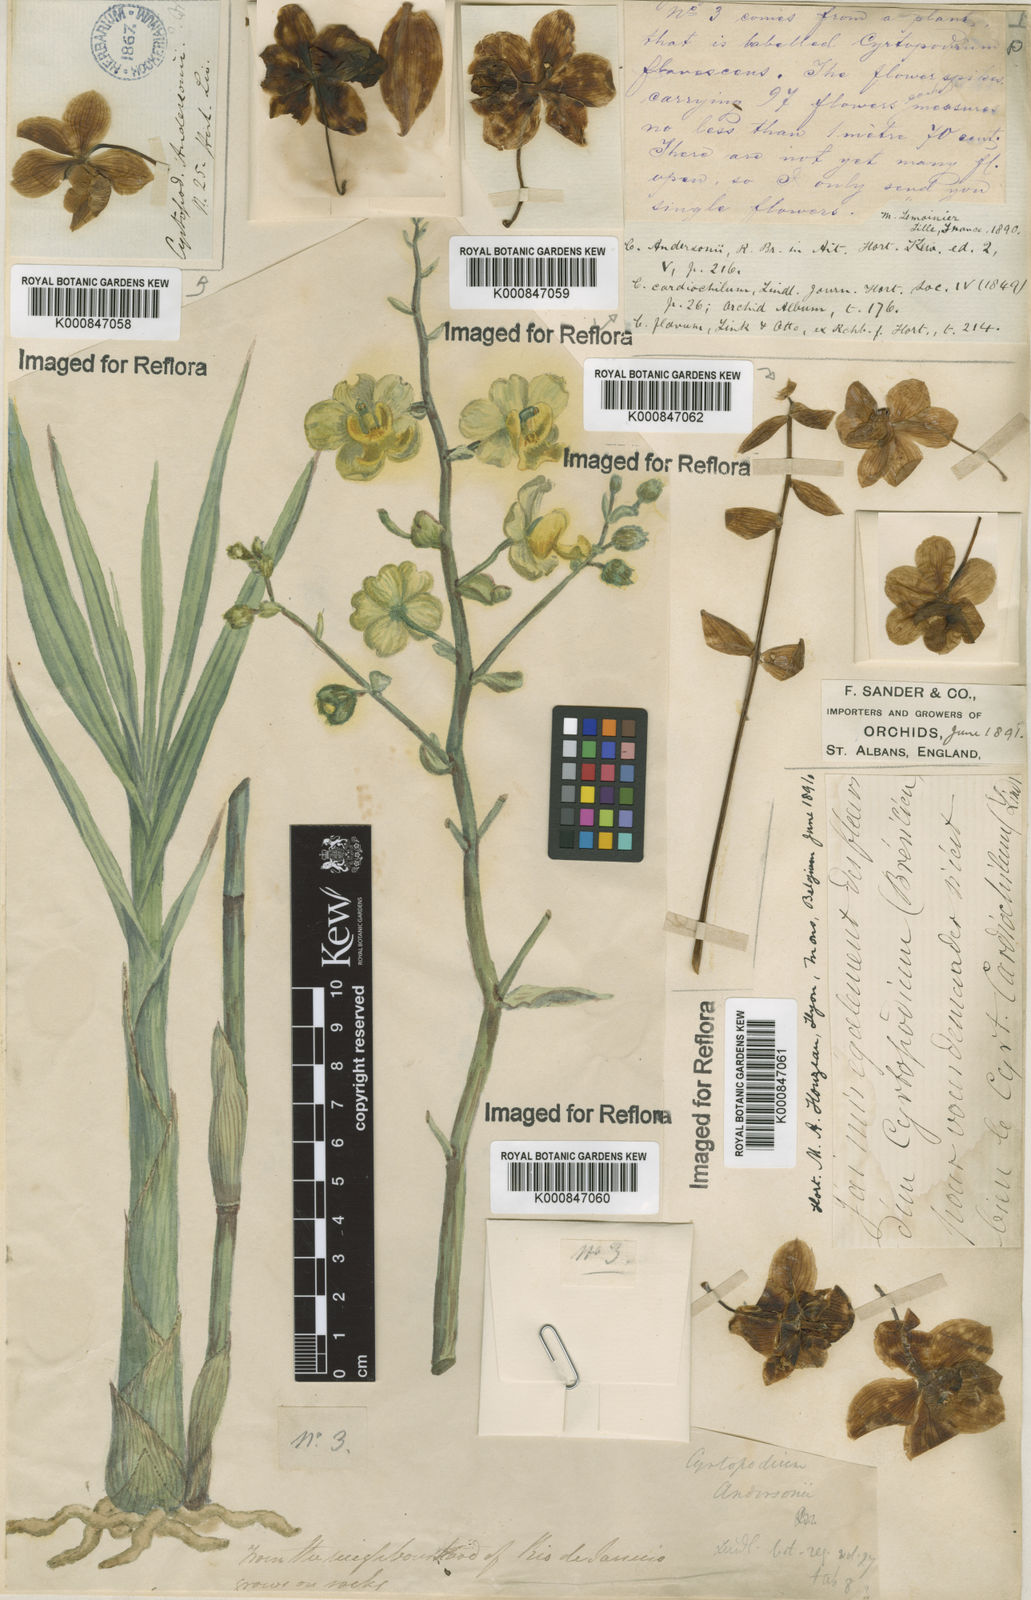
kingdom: Plantae
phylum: Tracheophyta
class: Liliopsida
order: Asparagales
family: Orchidaceae
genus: Cyrtopodium
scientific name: Cyrtopodium andersonii
